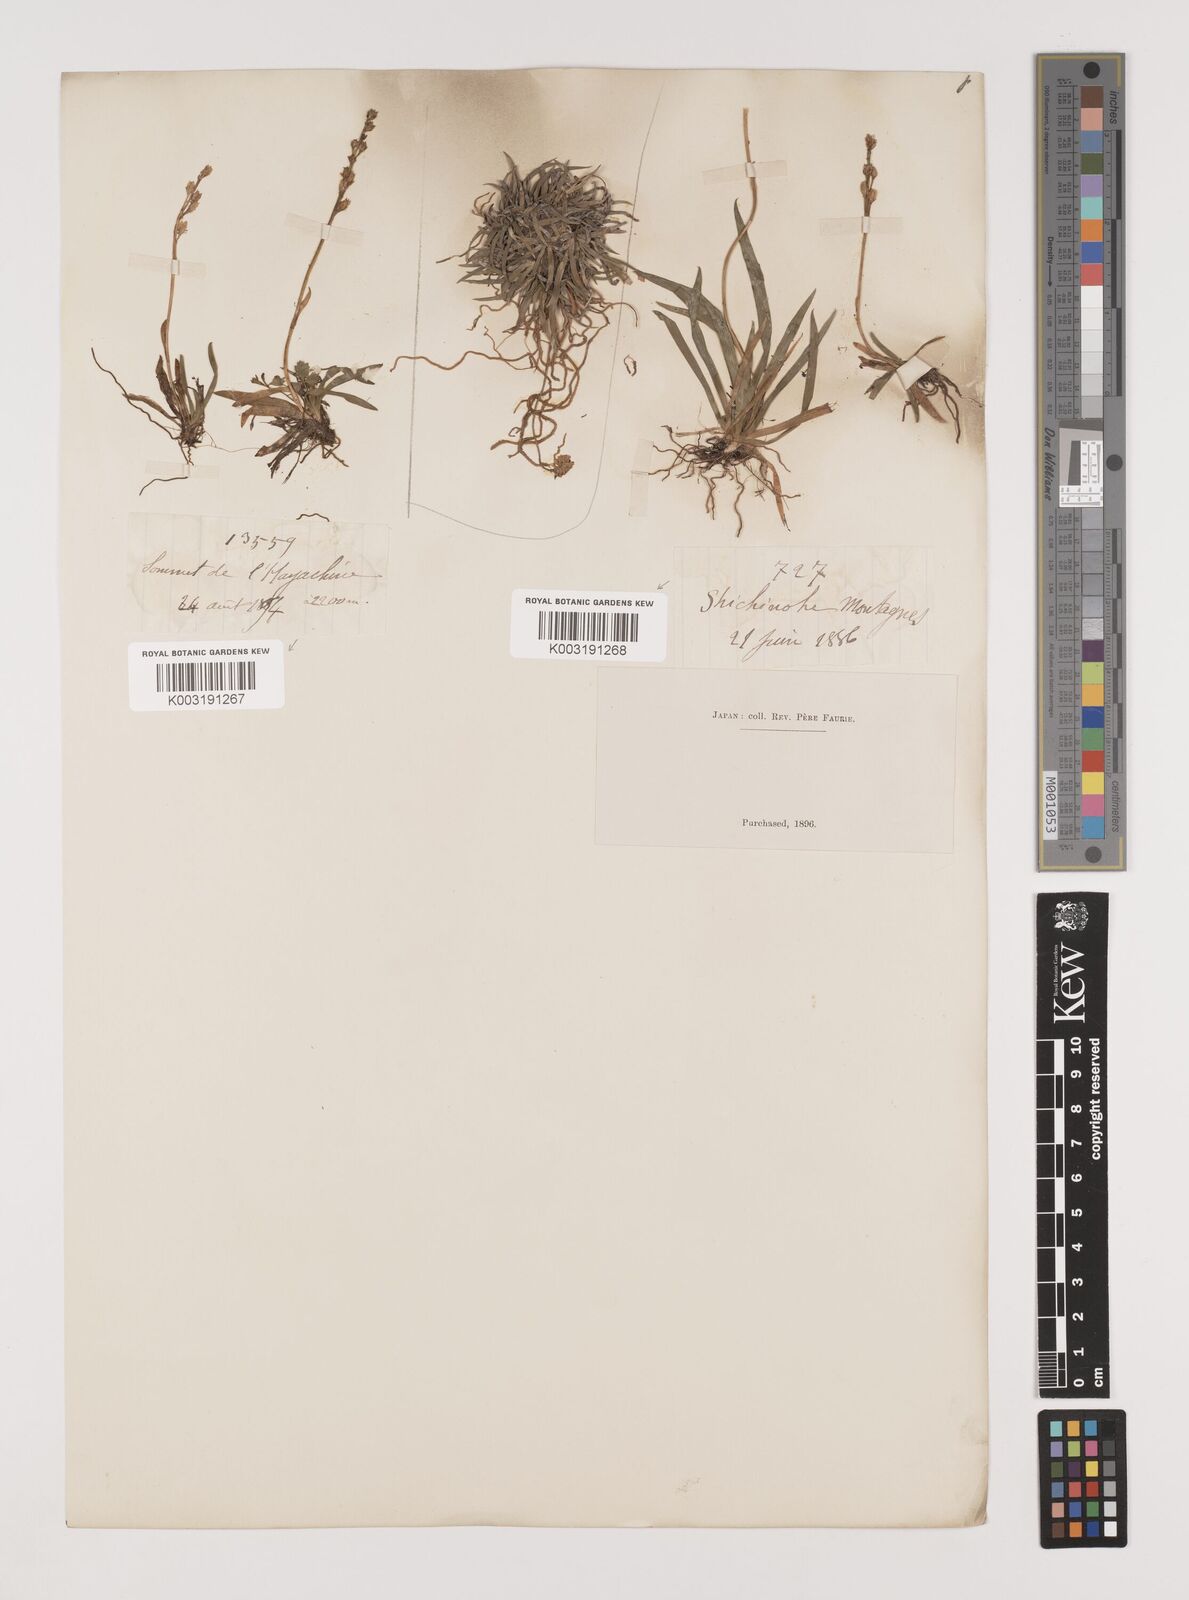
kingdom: Plantae
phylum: Tracheophyta
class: Liliopsida
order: Alismatales
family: Tofieldiaceae
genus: Tofieldia
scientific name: Tofieldia coccinea
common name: Northern false asphodel
